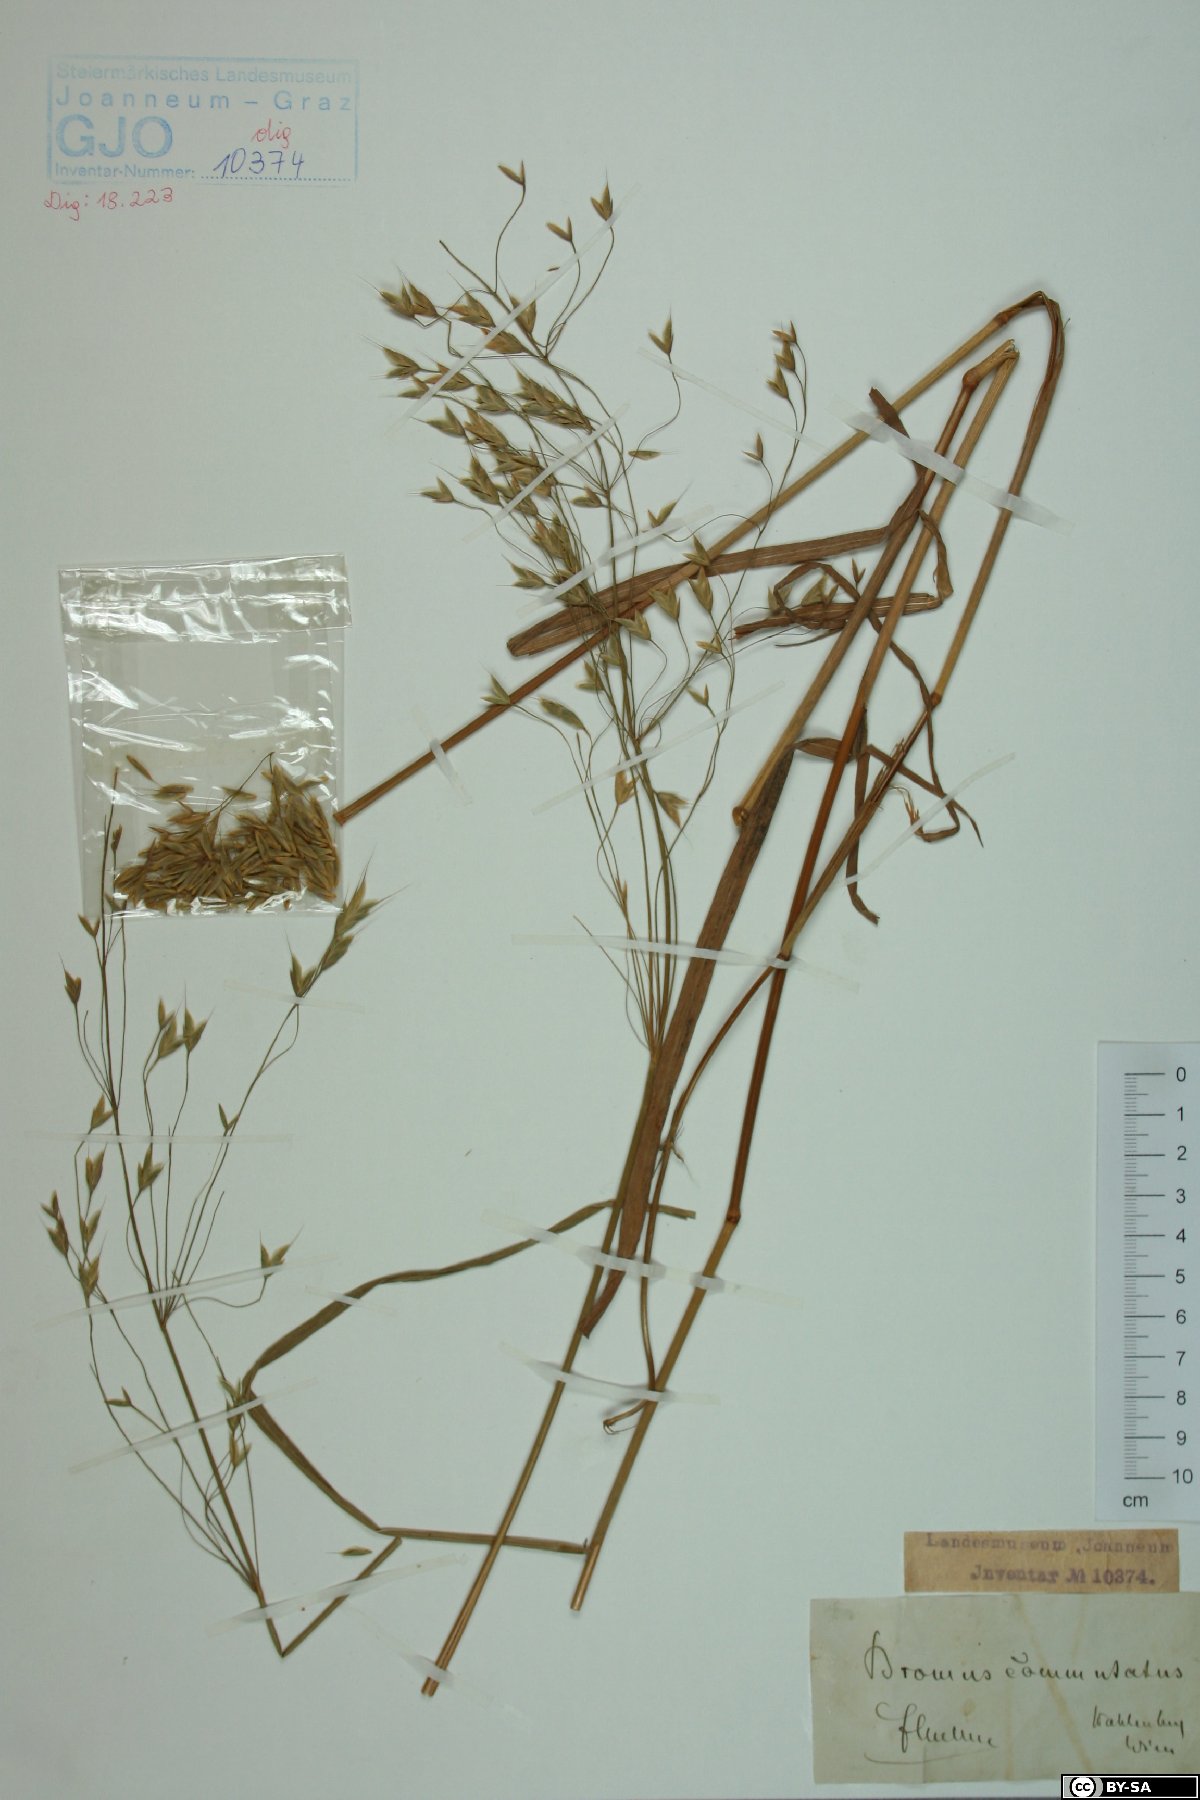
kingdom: Plantae
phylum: Tracheophyta
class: Liliopsida
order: Poales
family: Poaceae
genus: Bromus
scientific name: Bromus commutatus
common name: Meadow brome
